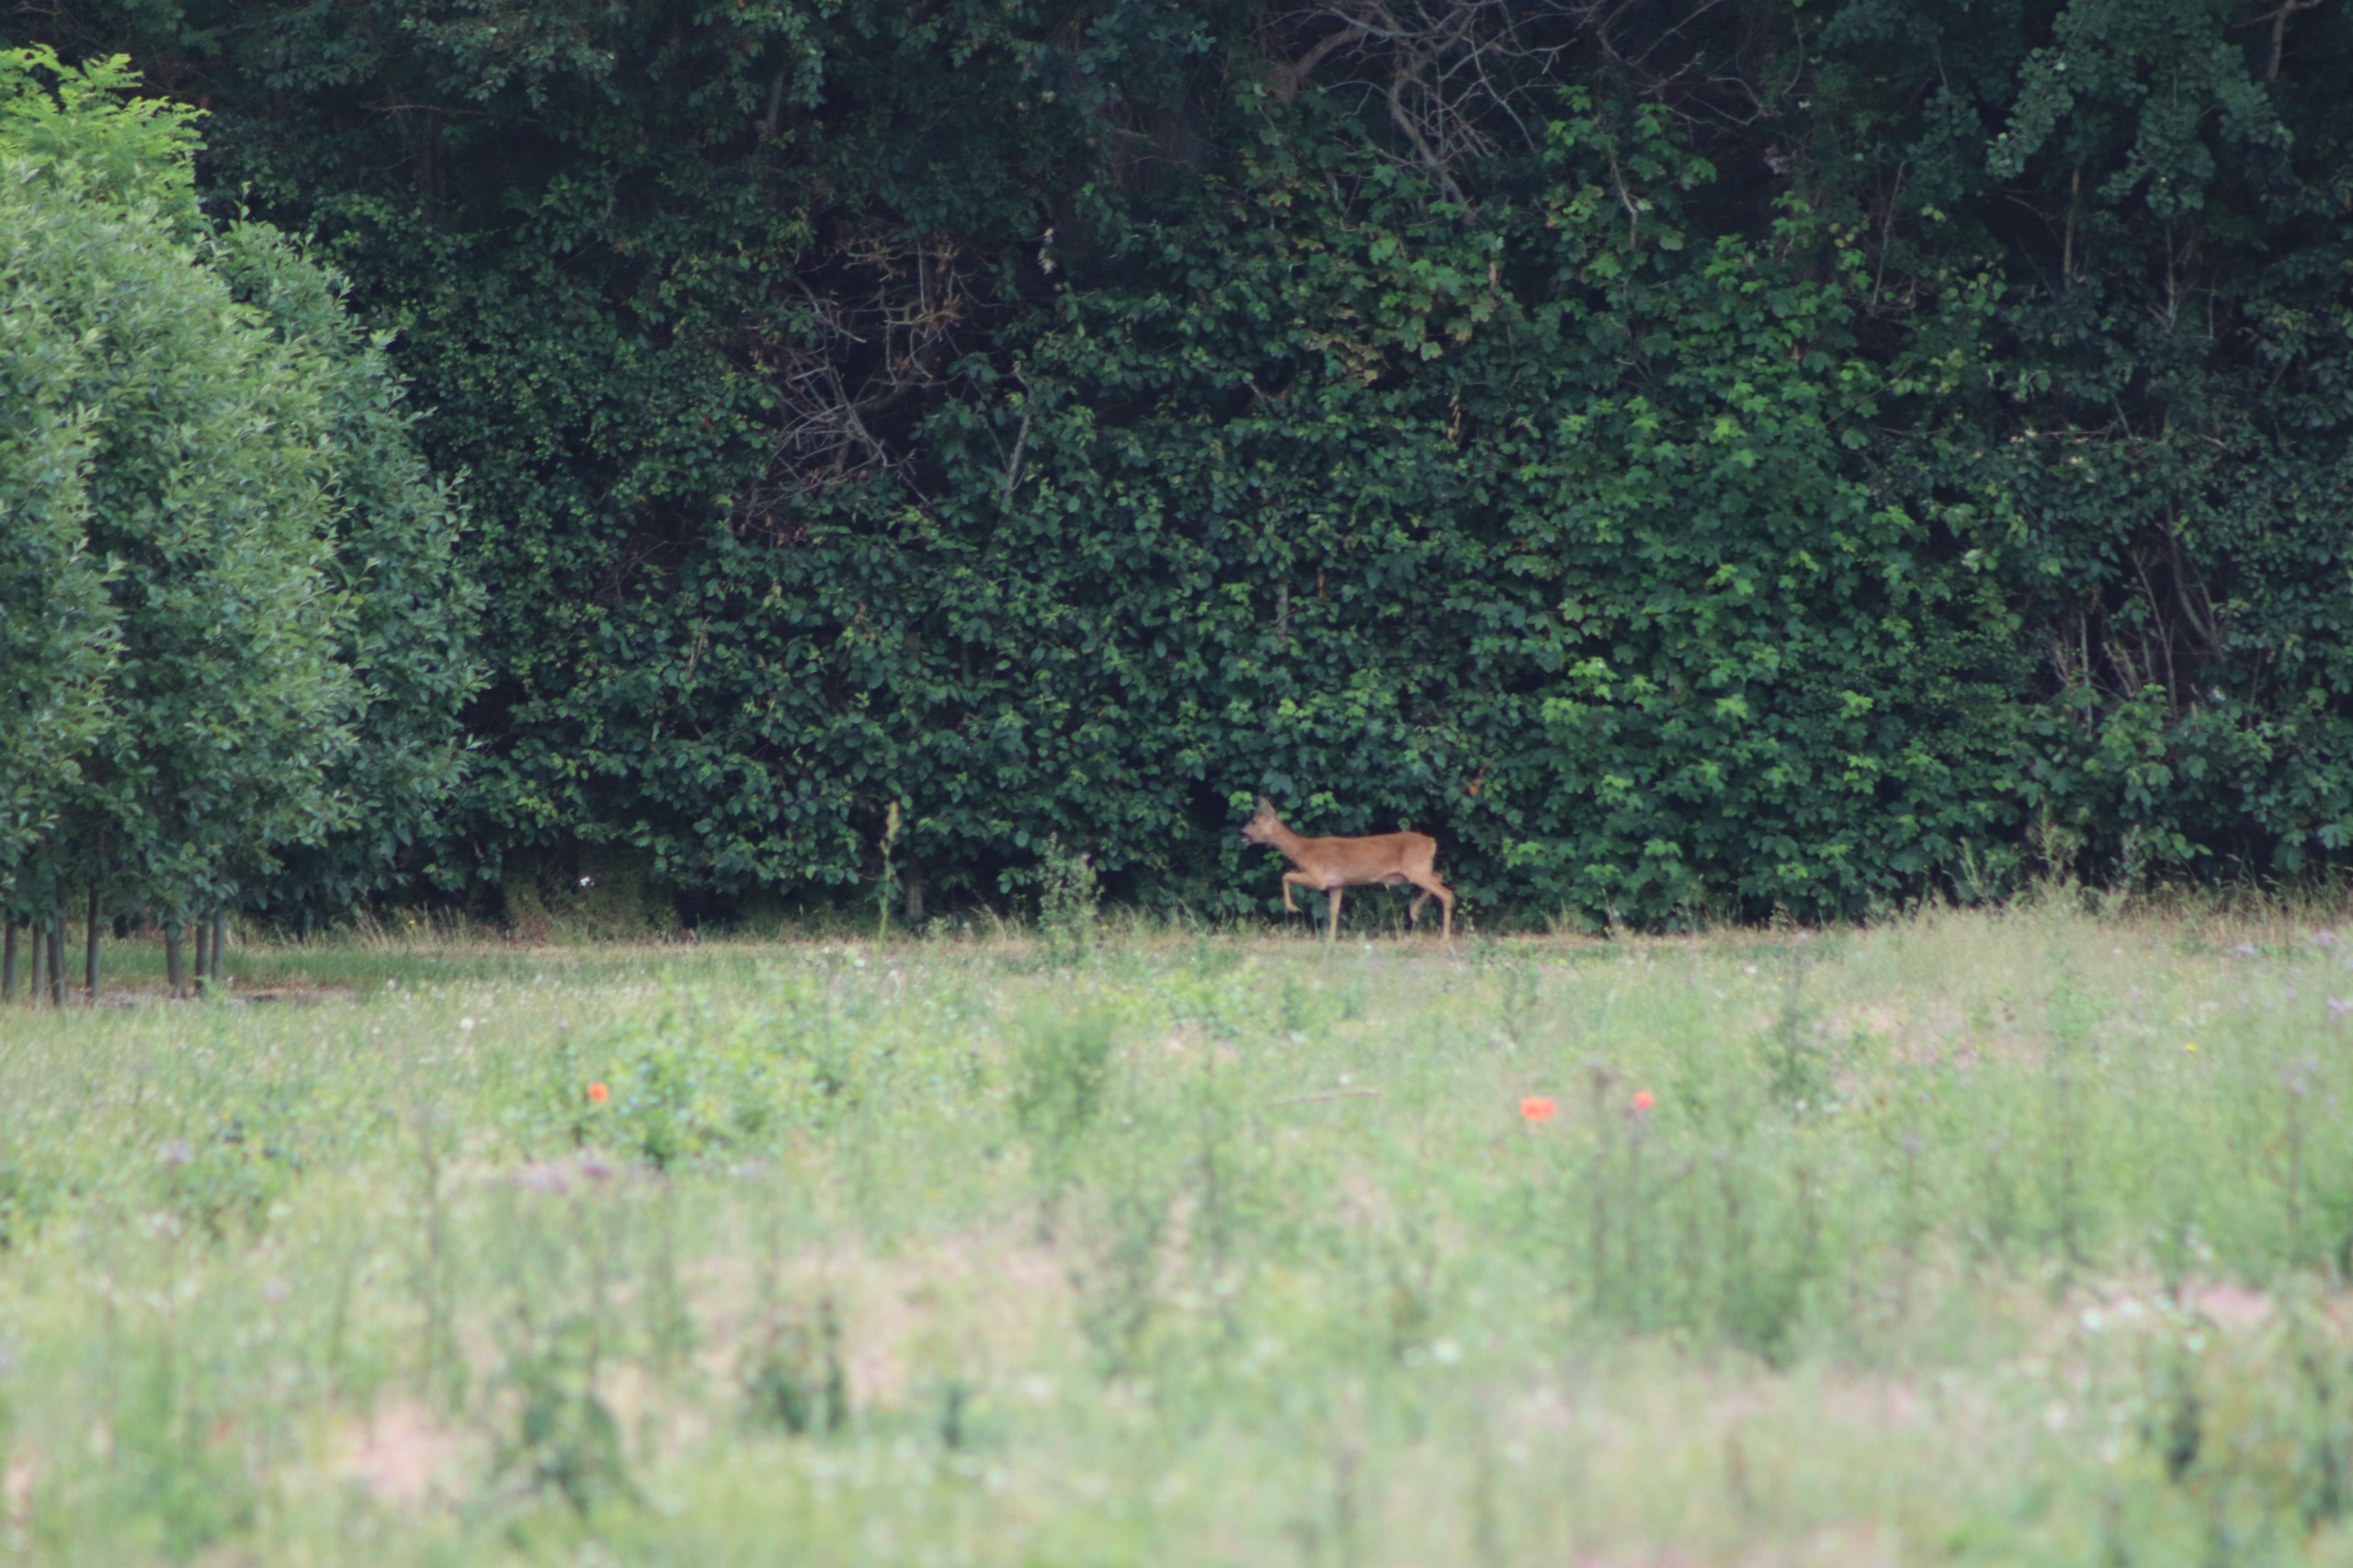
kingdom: Animalia
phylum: Chordata
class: Mammalia
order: Artiodactyla
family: Cervidae
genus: Capreolus
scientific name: Capreolus capreolus
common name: Rådyr
